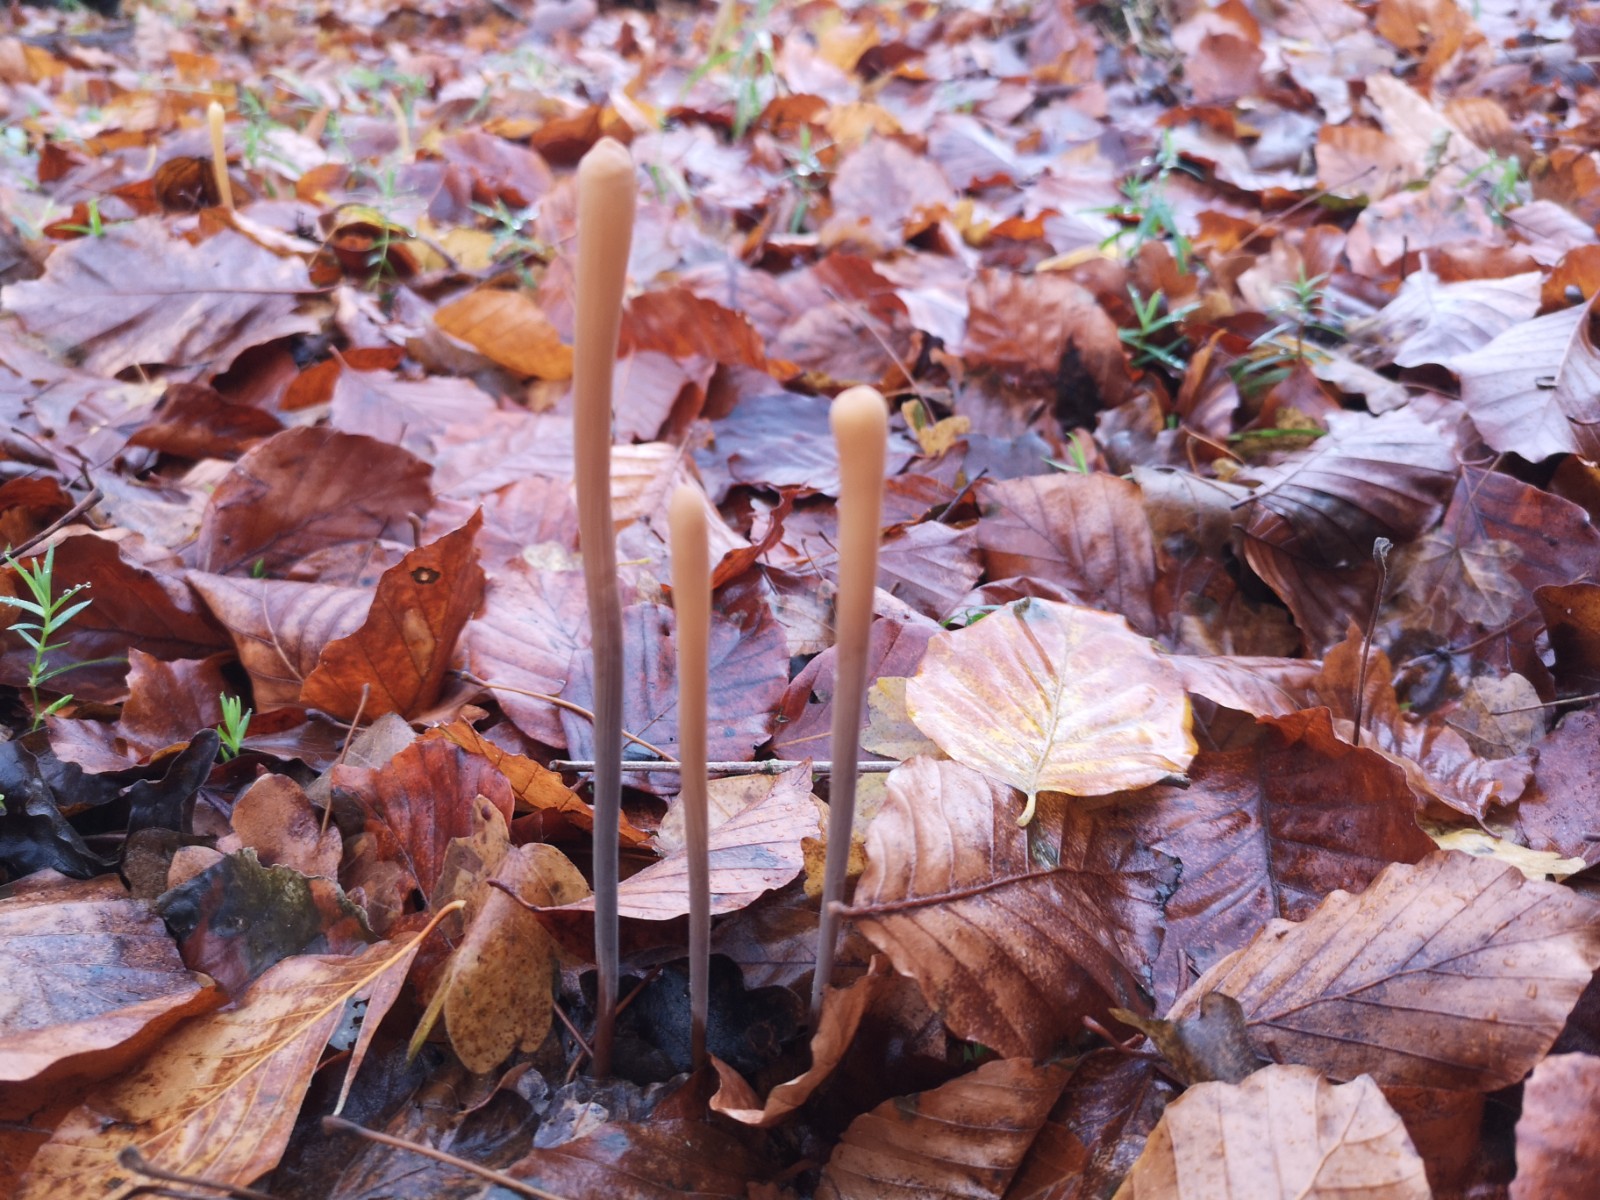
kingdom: Fungi
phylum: Basidiomycota
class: Agaricomycetes
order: Agaricales
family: Typhulaceae
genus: Typhula
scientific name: Typhula fistulosa
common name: pibet rørkølle
